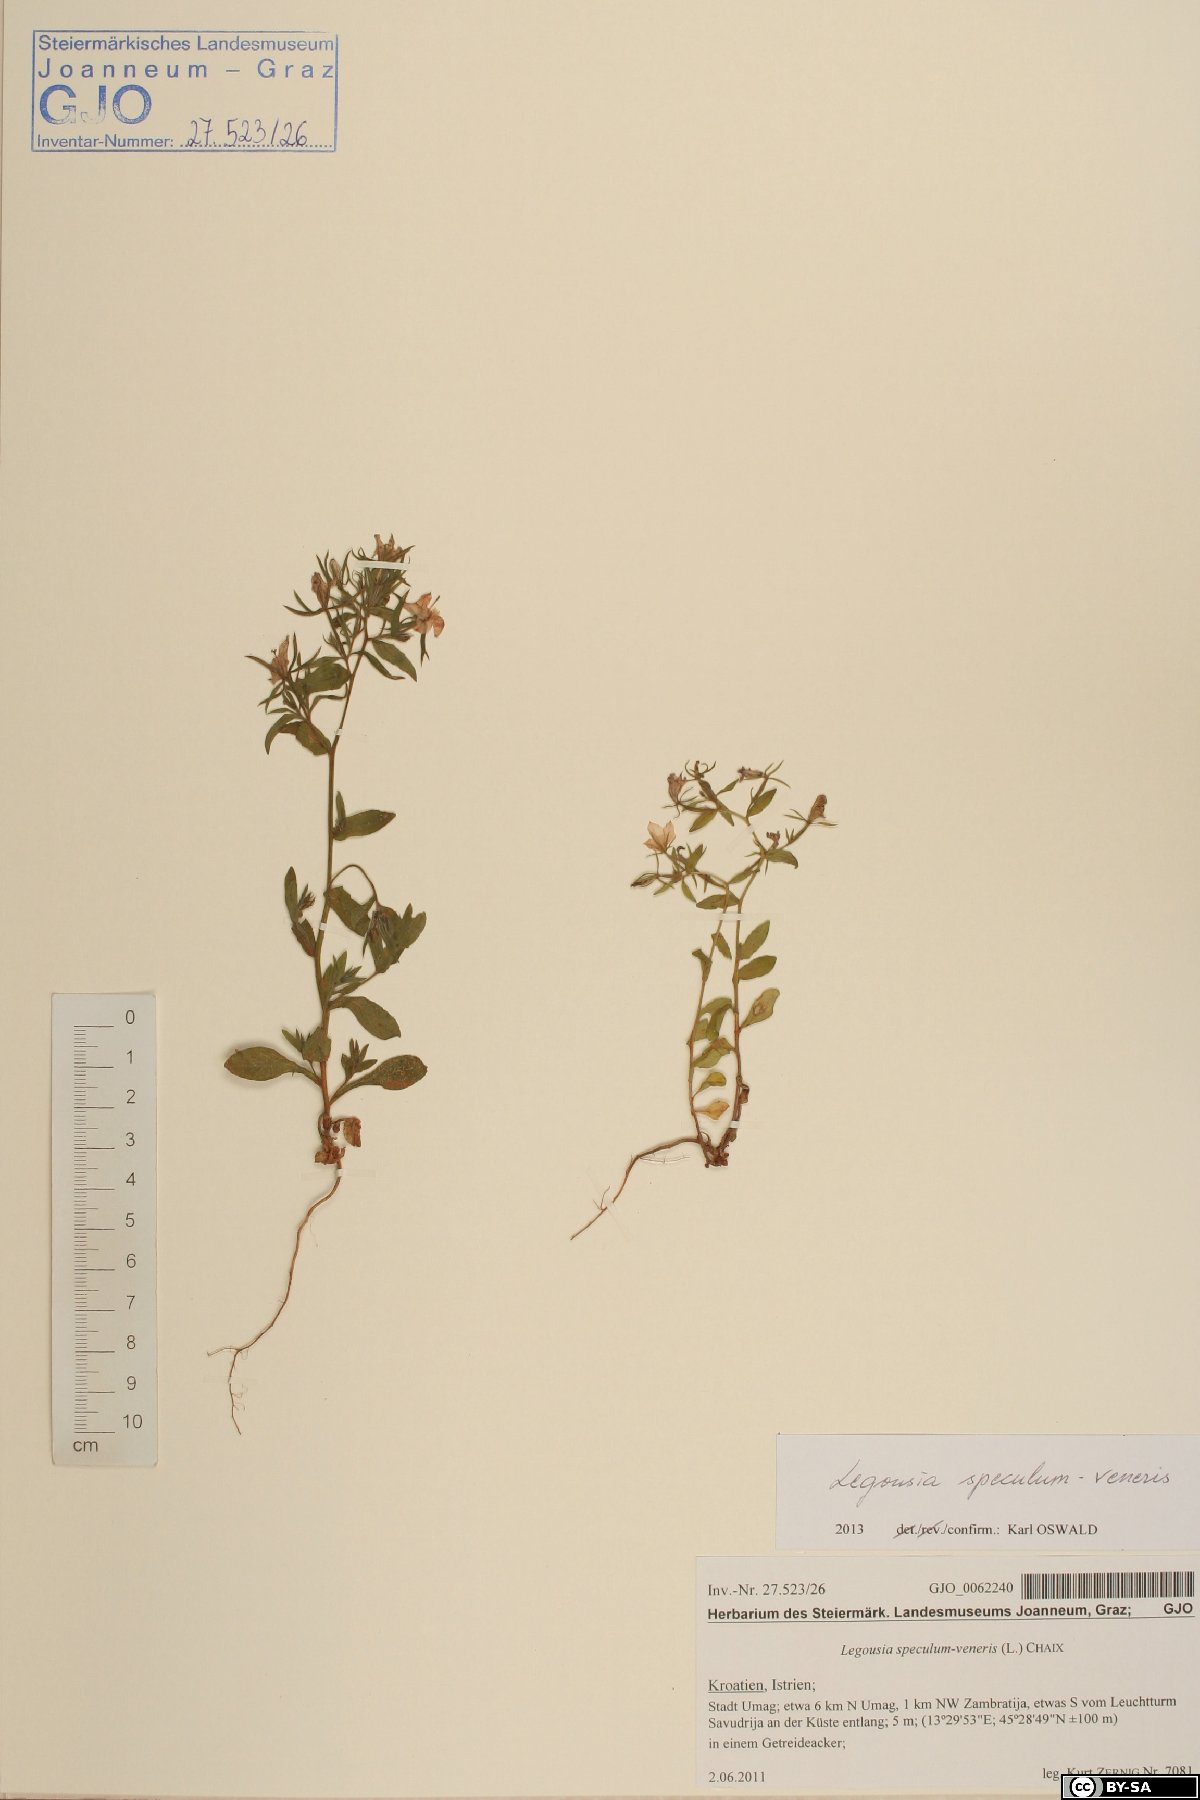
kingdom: Plantae
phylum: Tracheophyta
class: Magnoliopsida
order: Asterales
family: Campanulaceae
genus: Legousia
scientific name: Legousia speculum-veneris
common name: Large venus's-looking-glass
